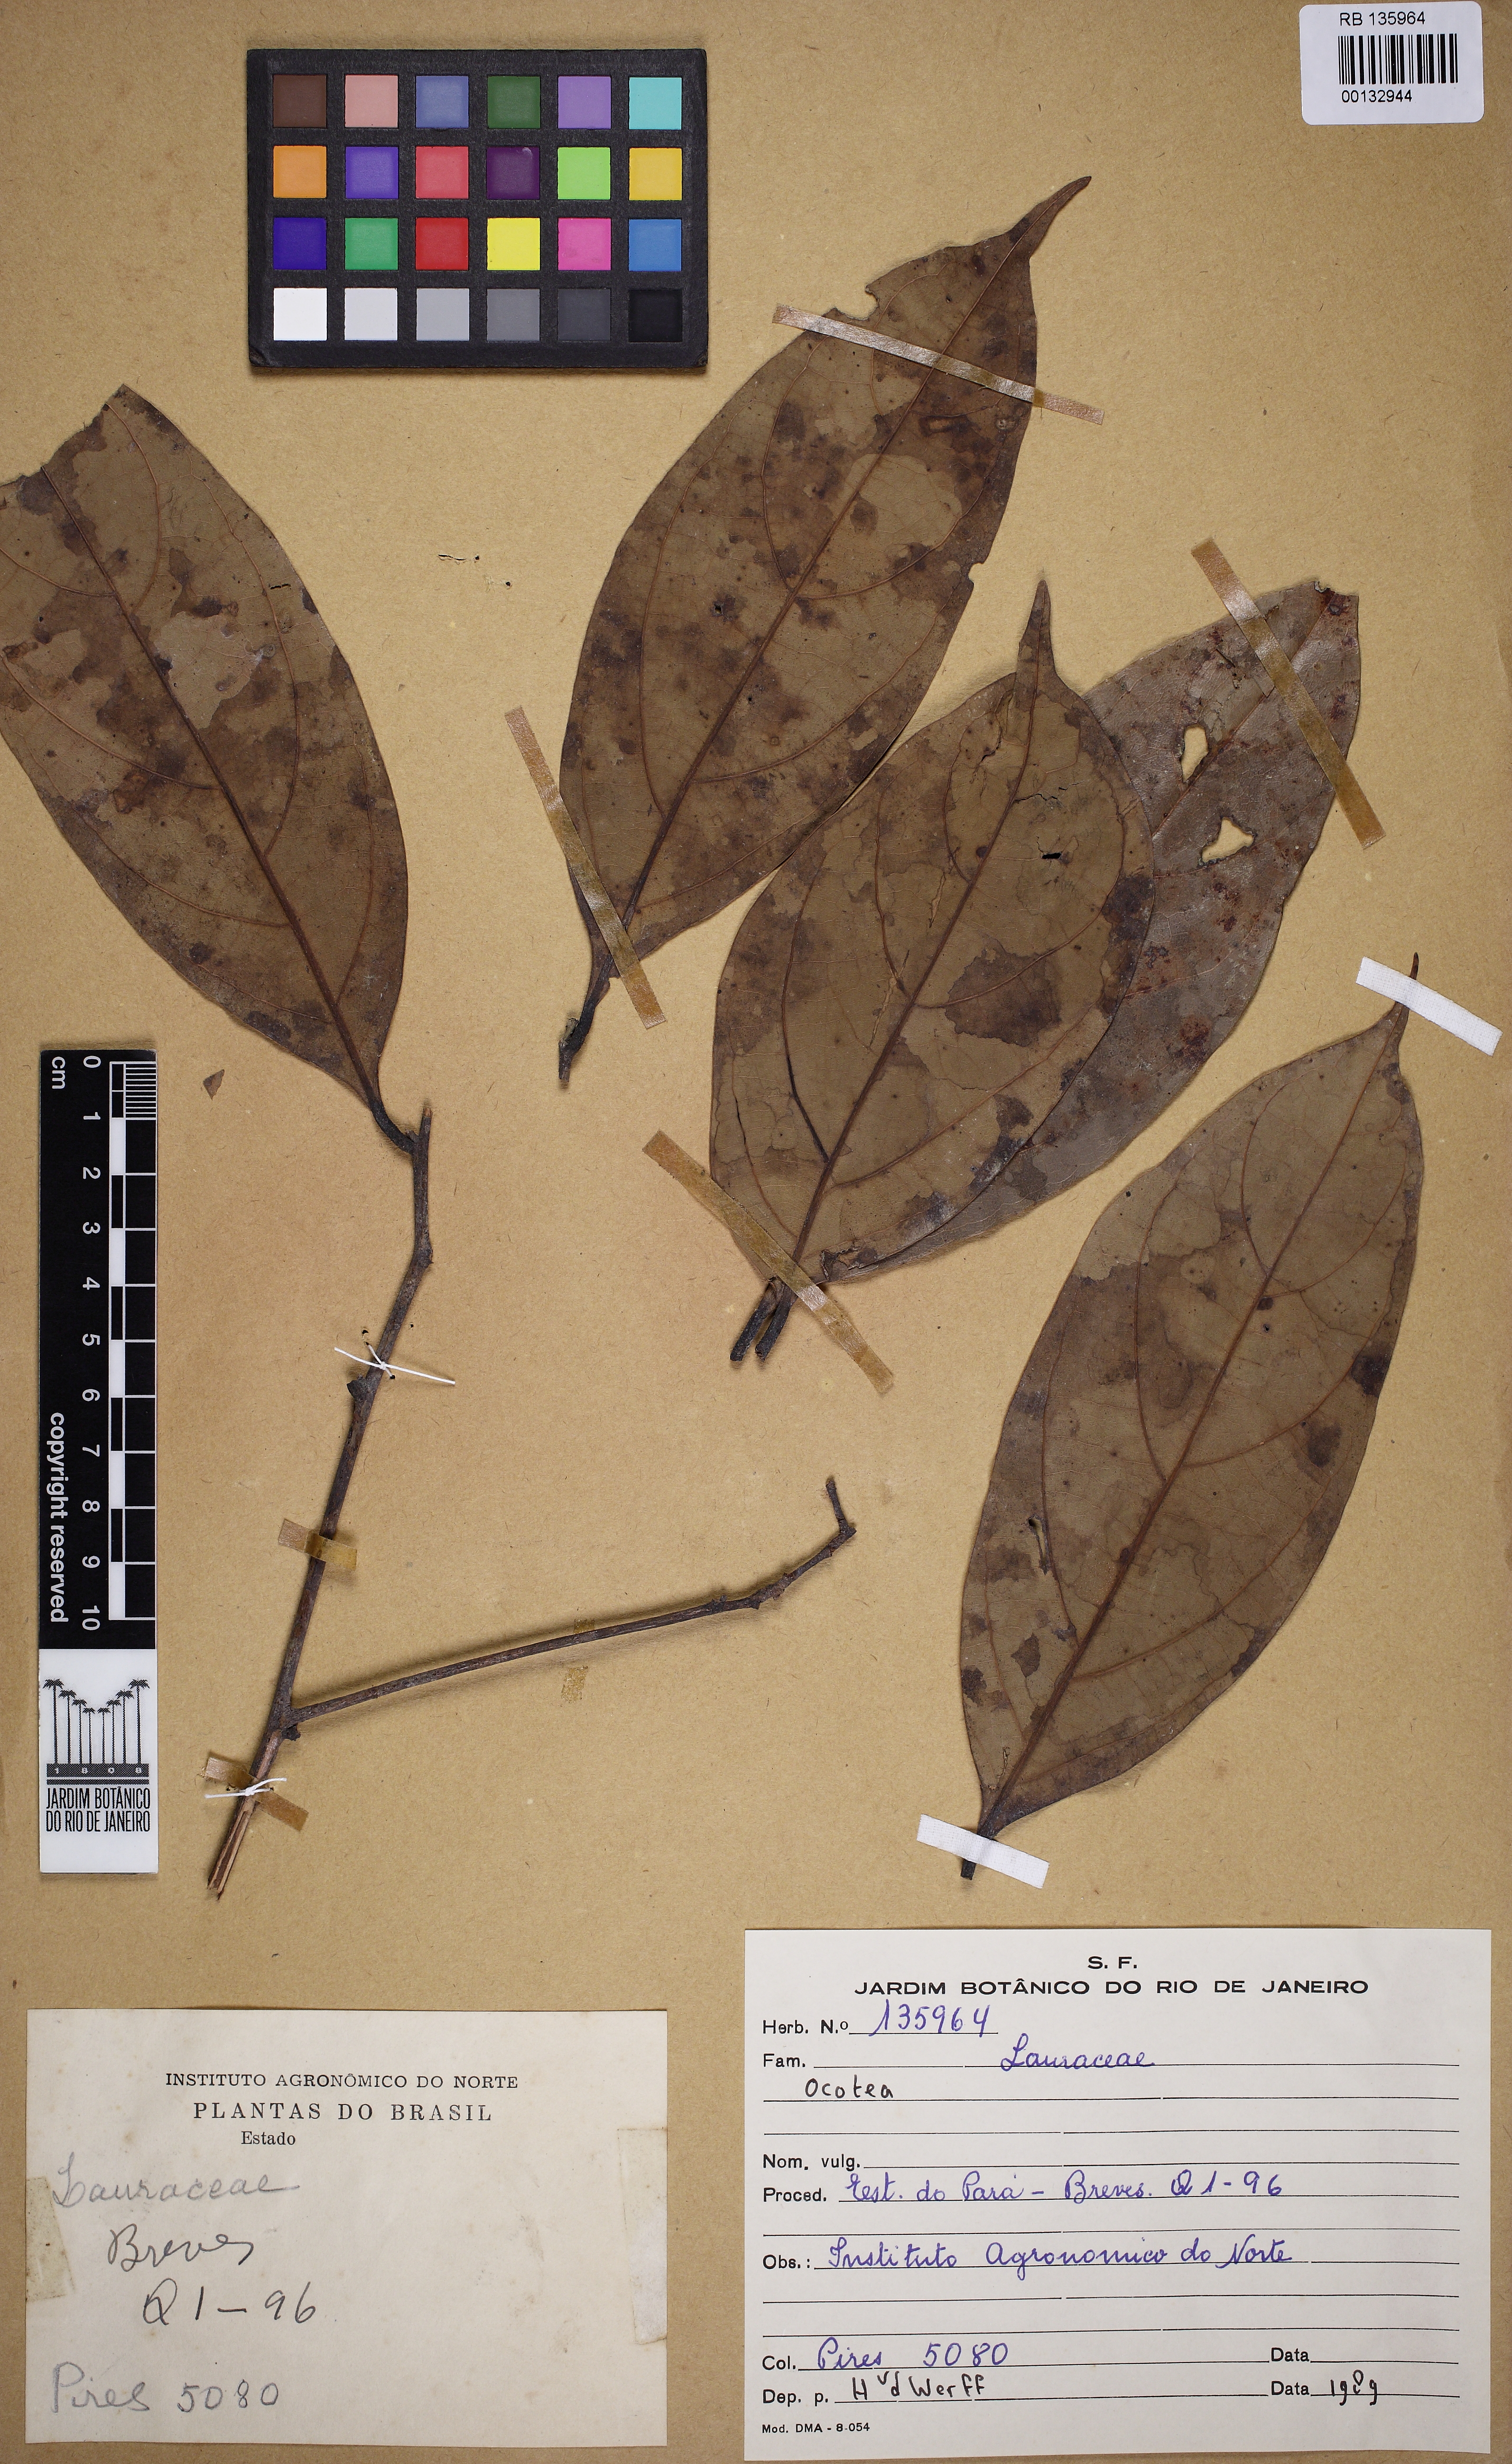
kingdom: Plantae
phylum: Tracheophyta
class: Magnoliopsida
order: Laurales
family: Lauraceae
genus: Ocotea
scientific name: Ocotea
